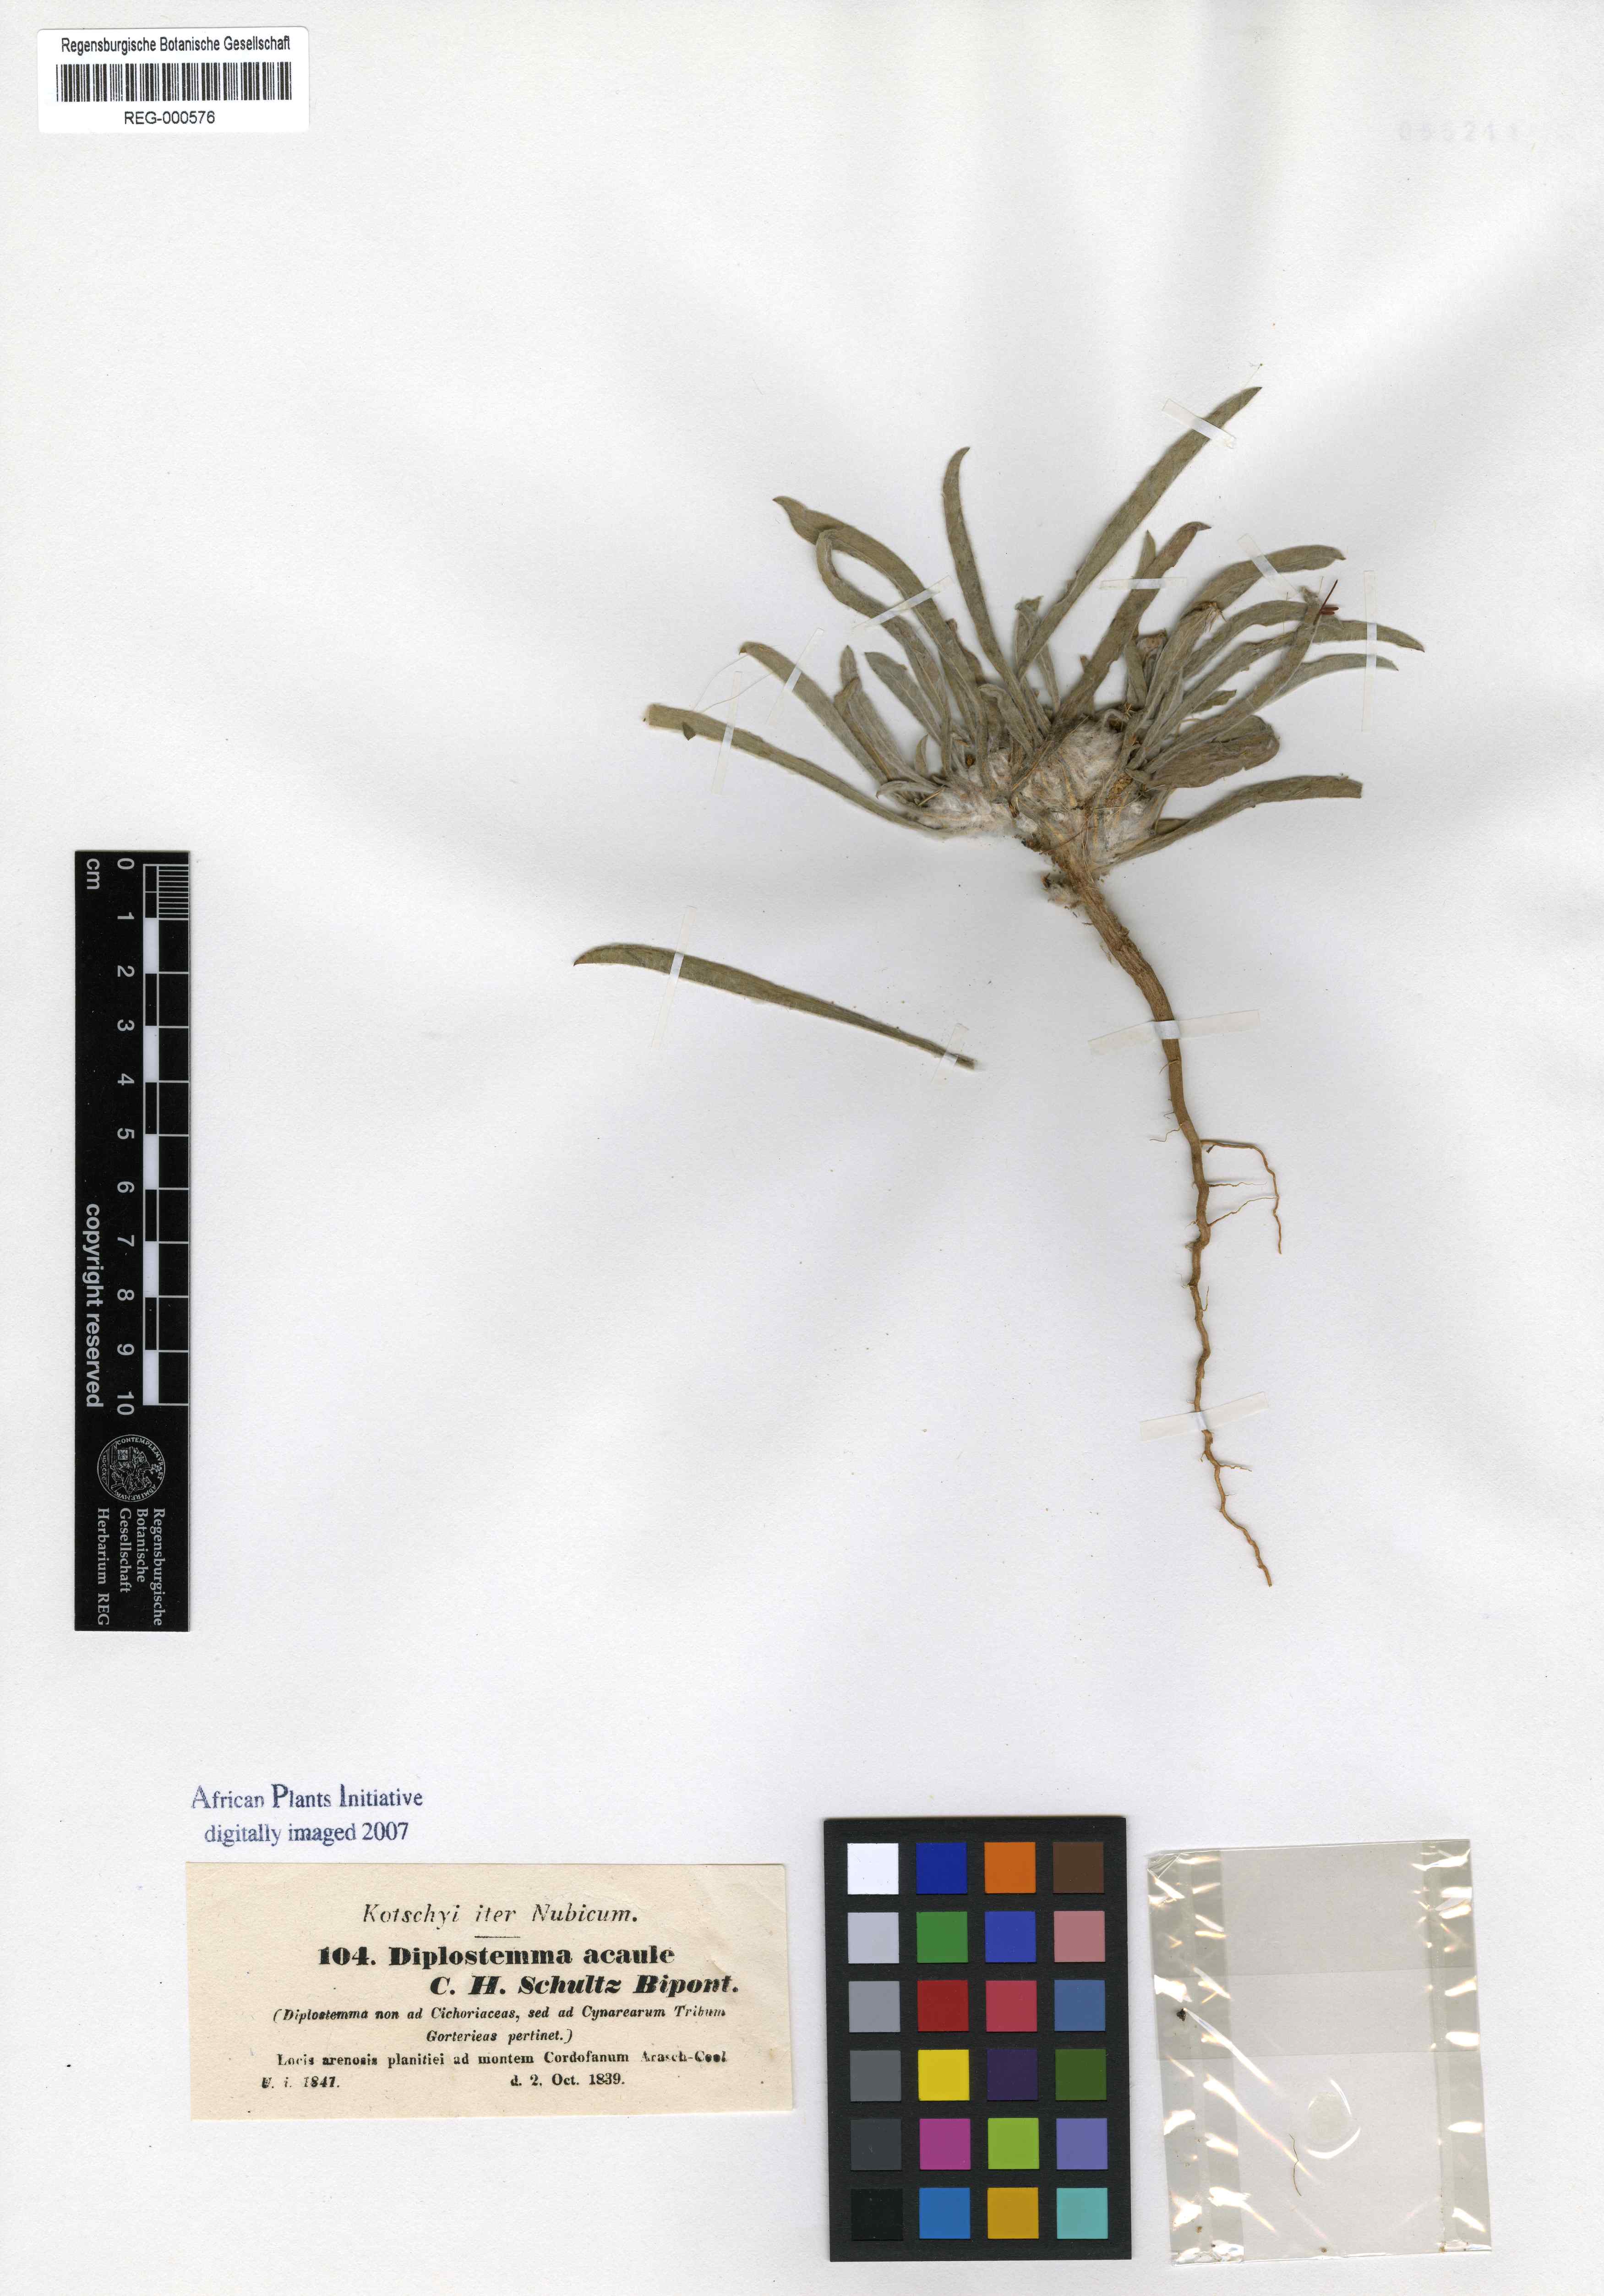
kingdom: Plantae
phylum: Tracheophyta
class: Magnoliopsida
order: Asterales
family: Asteraceae
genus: Geigeria
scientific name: Geigeria acaulis
